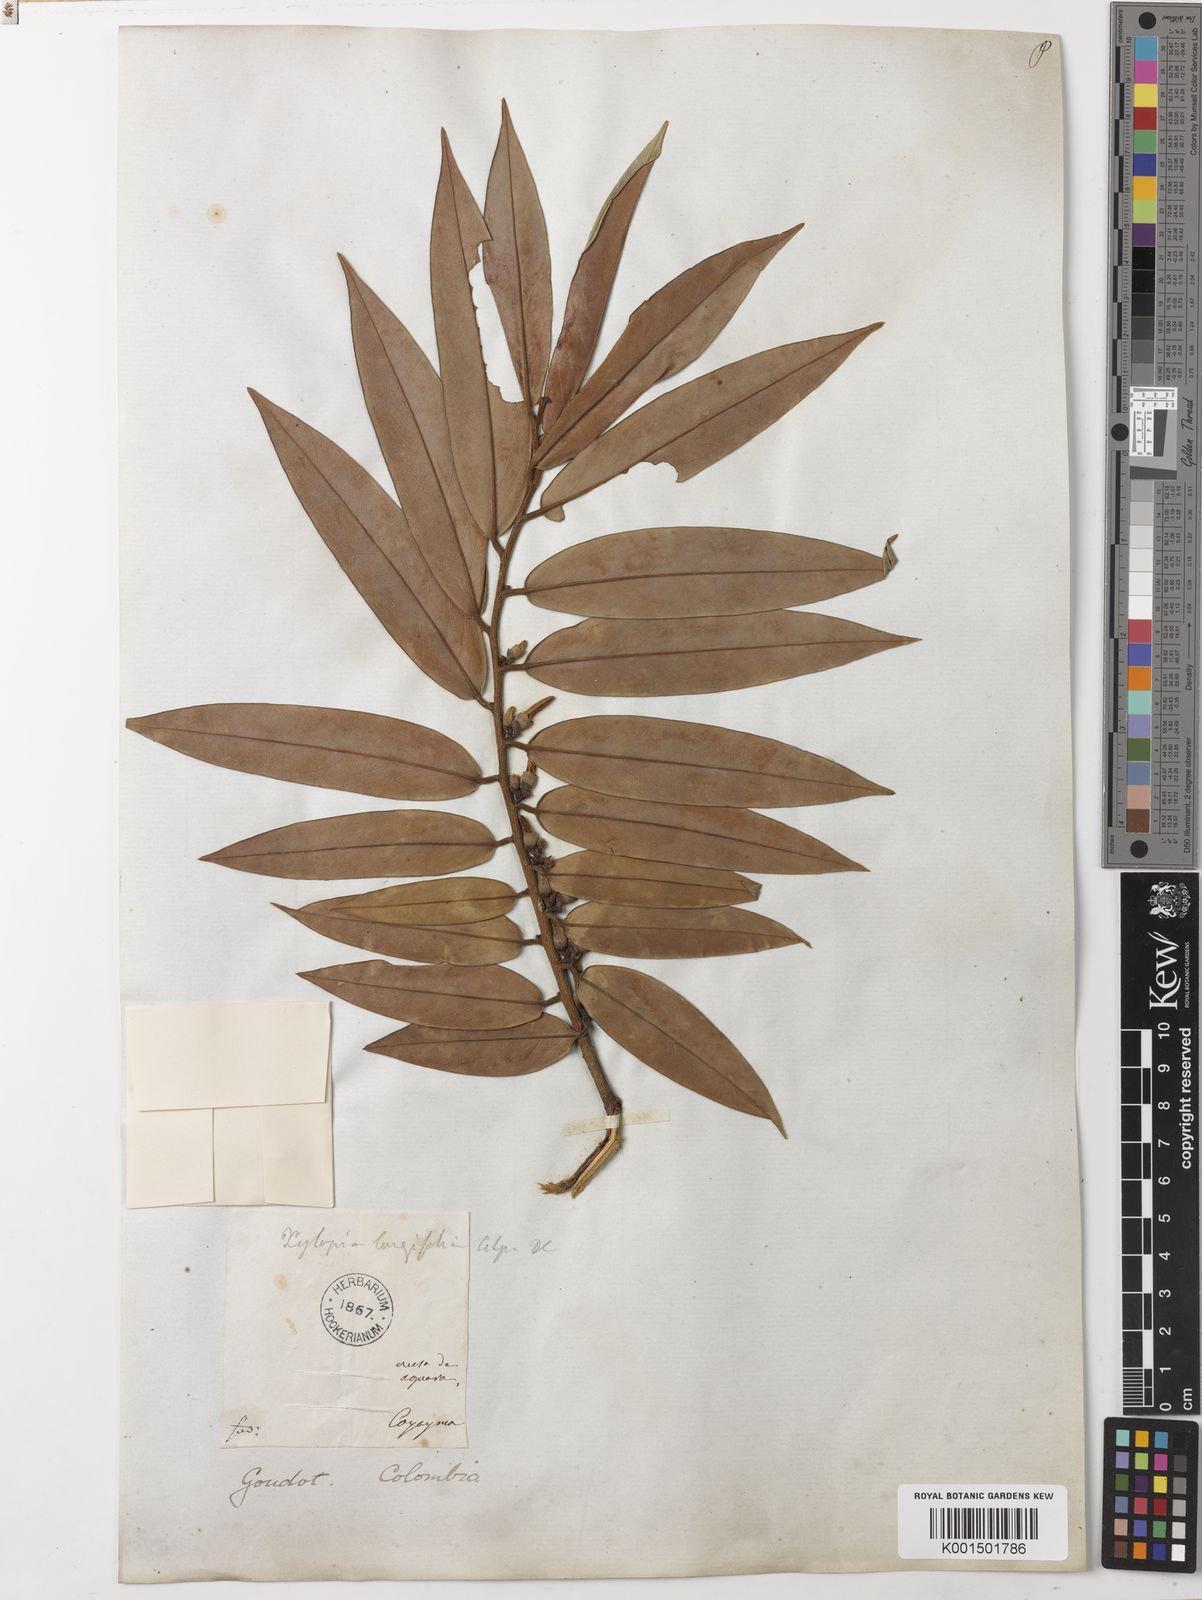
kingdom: Plantae
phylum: Tracheophyta
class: Magnoliopsida
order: Magnoliales
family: Annonaceae
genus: Xylopia
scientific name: Xylopia aromatica
